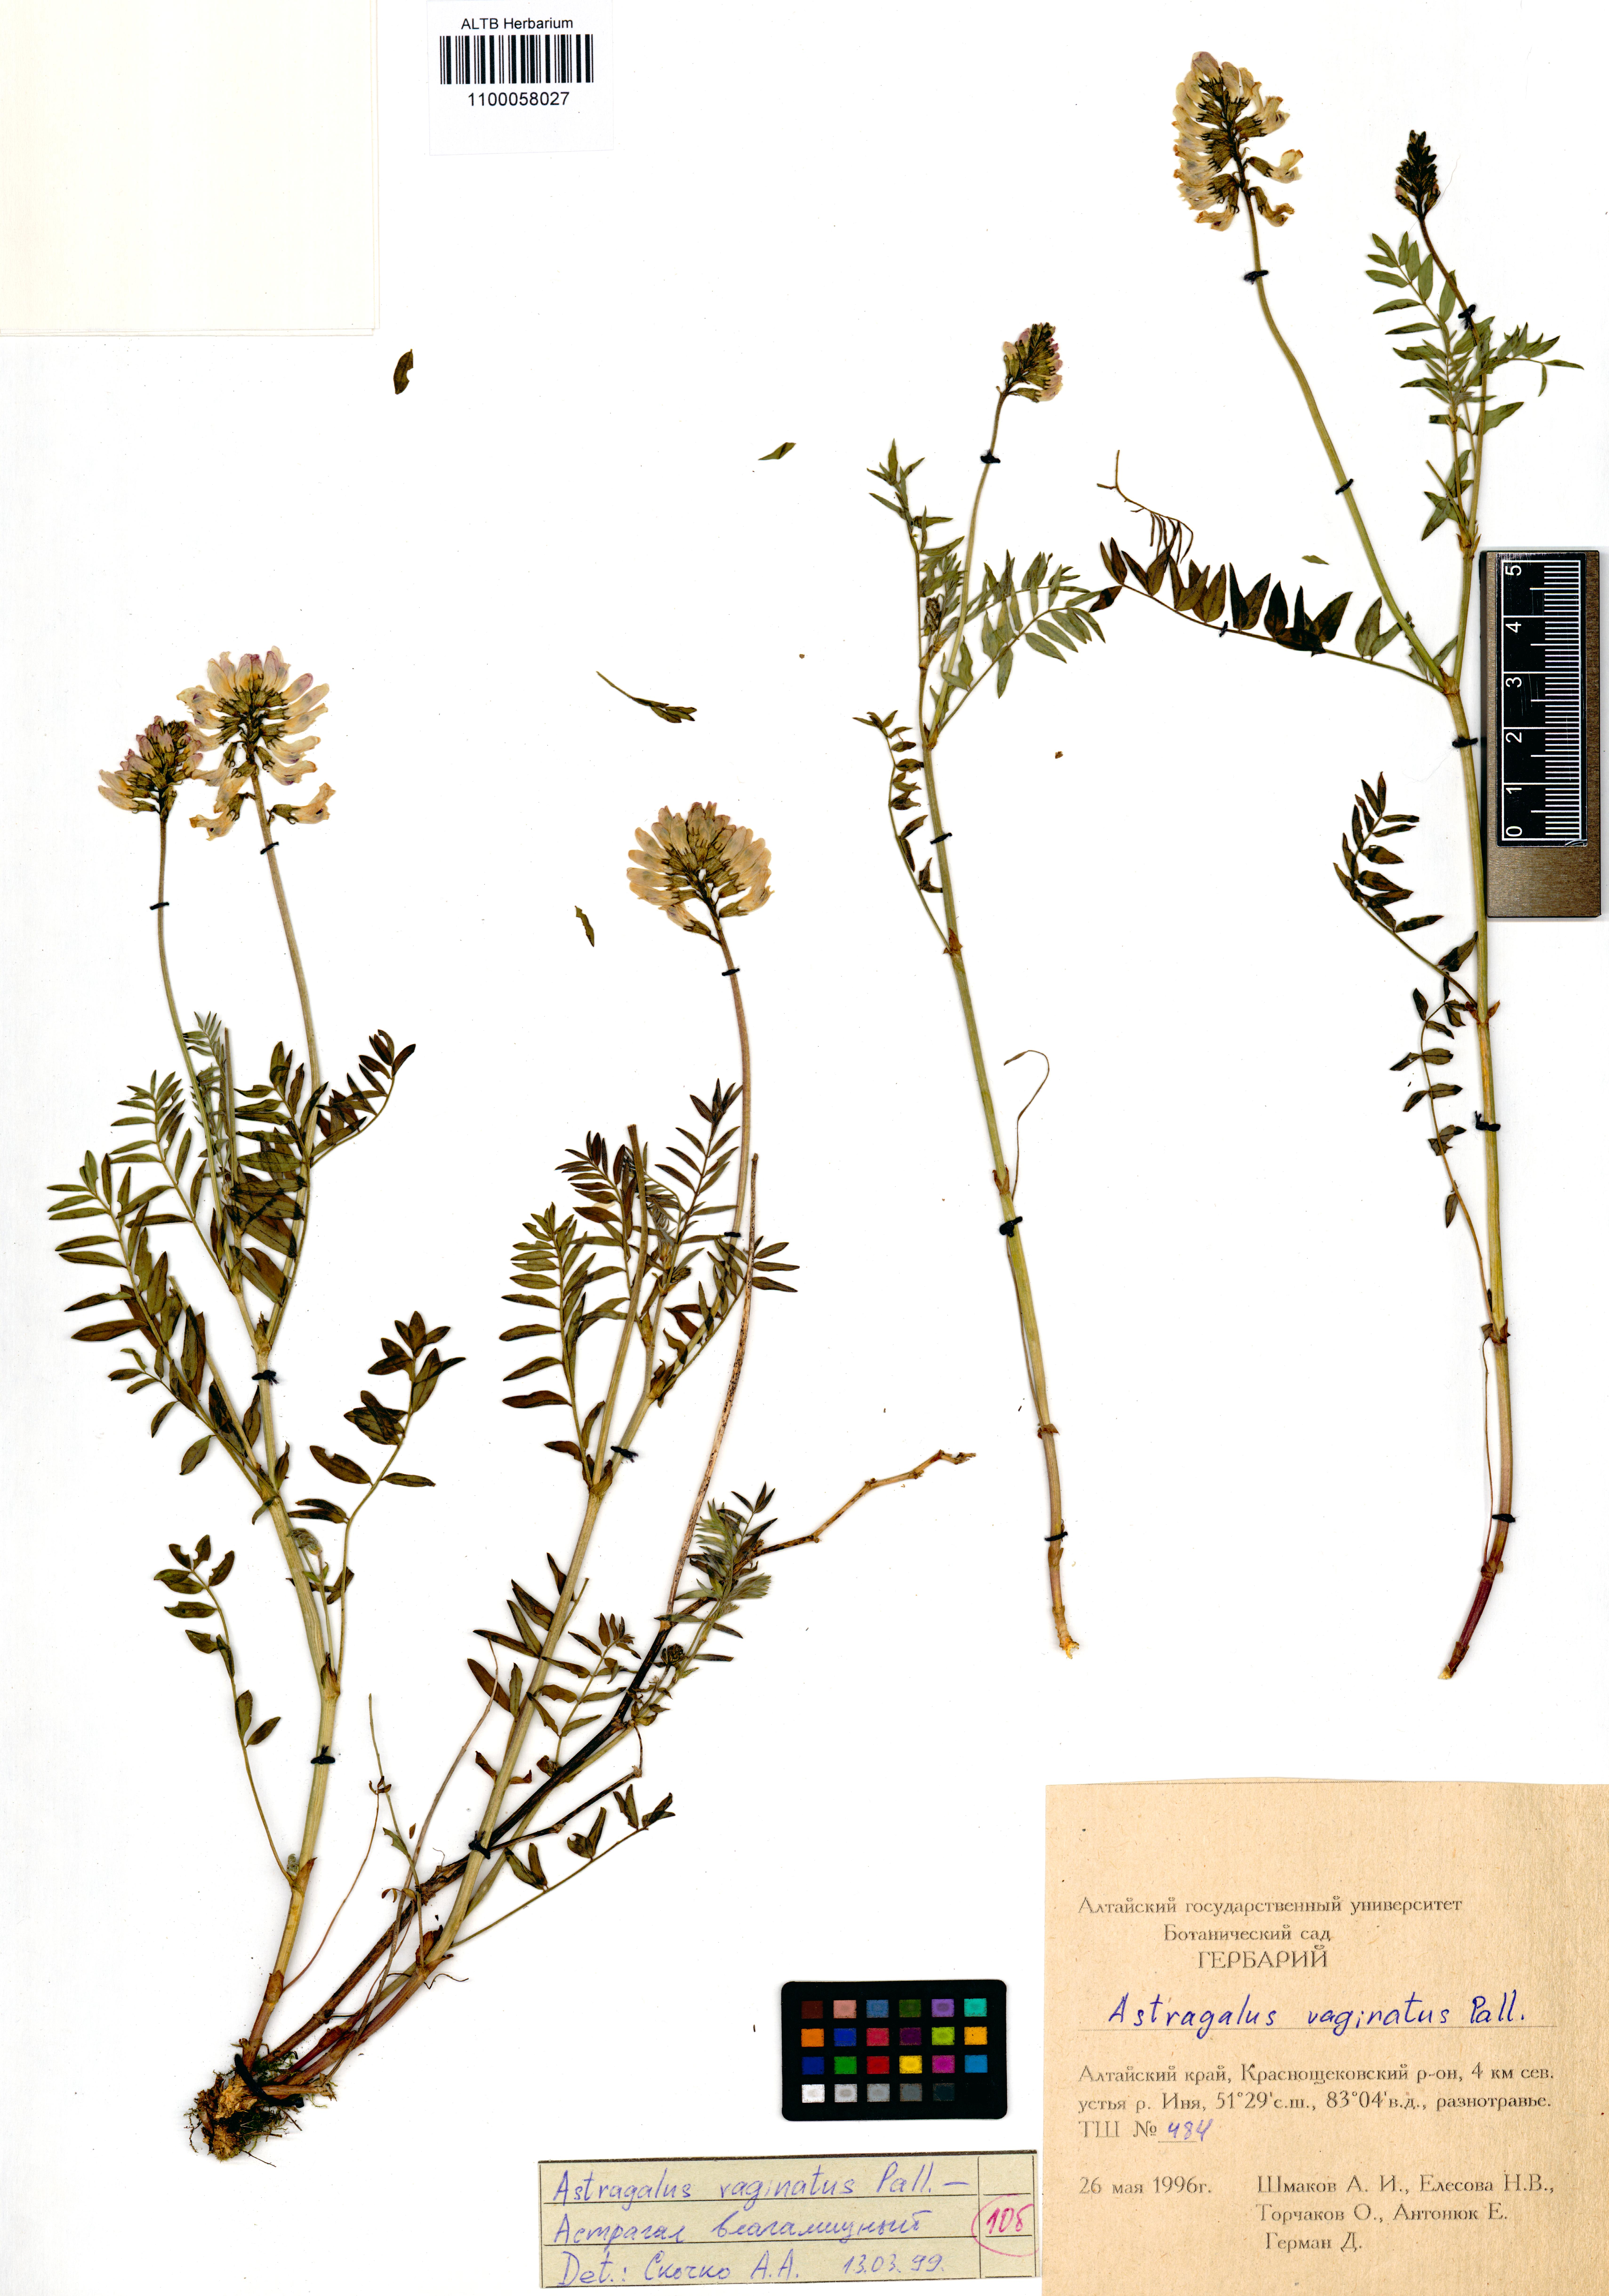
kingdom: Plantae
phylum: Tracheophyta
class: Magnoliopsida
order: Fabales
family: Fabaceae
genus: Astragalus
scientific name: Astragalus vaginatus
